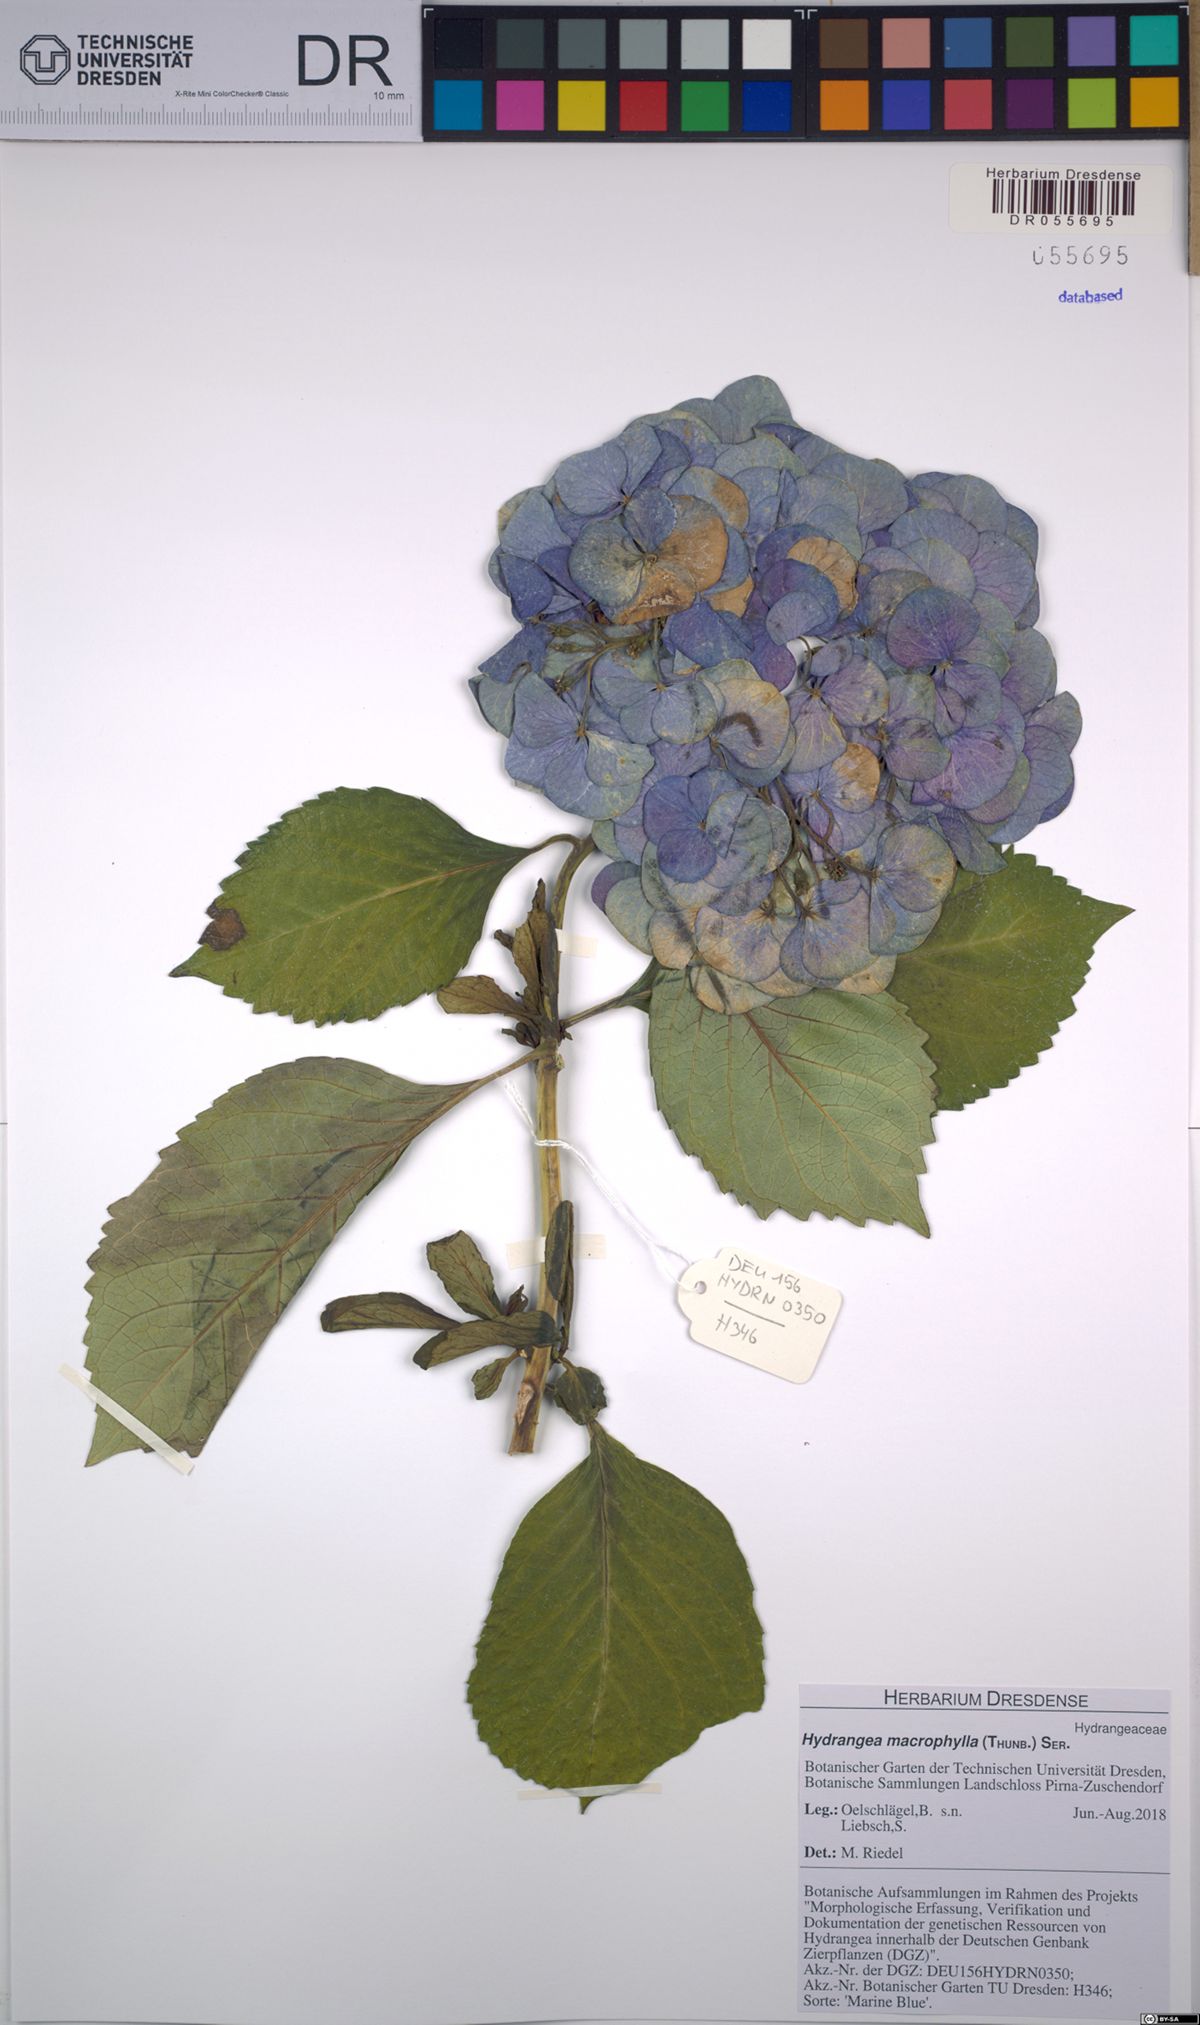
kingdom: Plantae
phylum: Tracheophyta
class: Magnoliopsida
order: Cornales
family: Hydrangeaceae
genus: Hydrangea
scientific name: Hydrangea macrophylla
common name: Hydrangea
